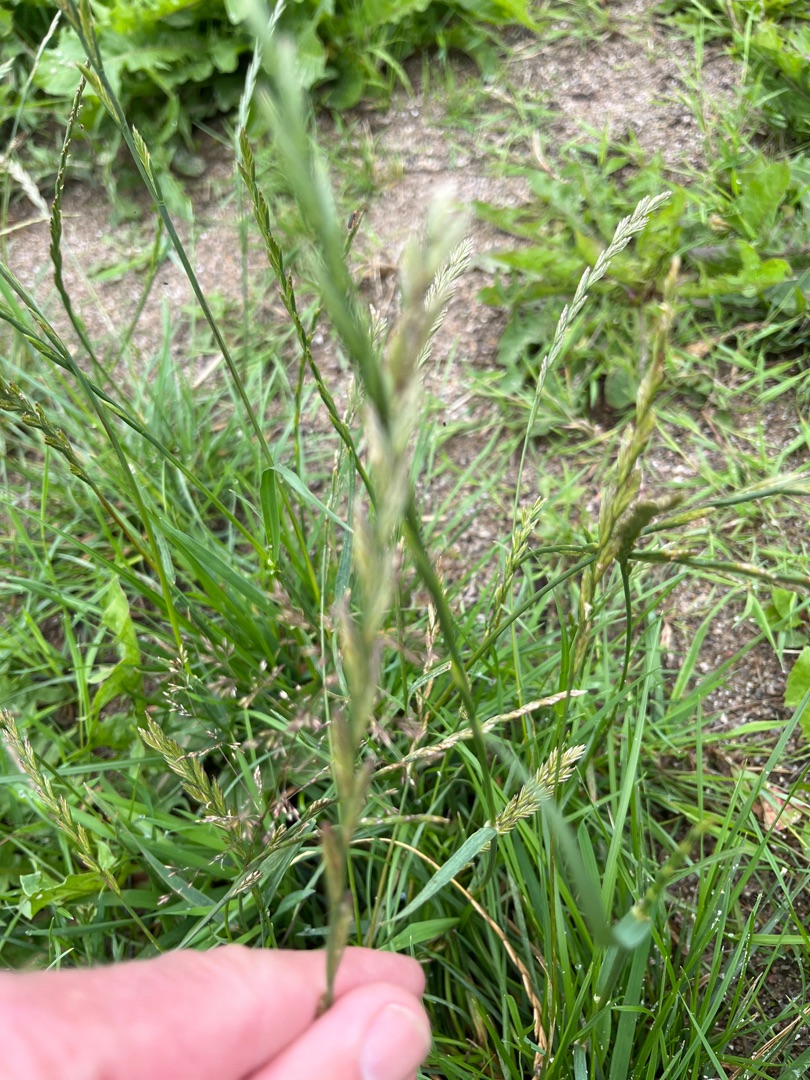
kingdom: Plantae
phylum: Tracheophyta
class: Liliopsida
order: Poales
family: Poaceae
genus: Lolium
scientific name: Lolium perenne
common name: Almindelig rajgræs
